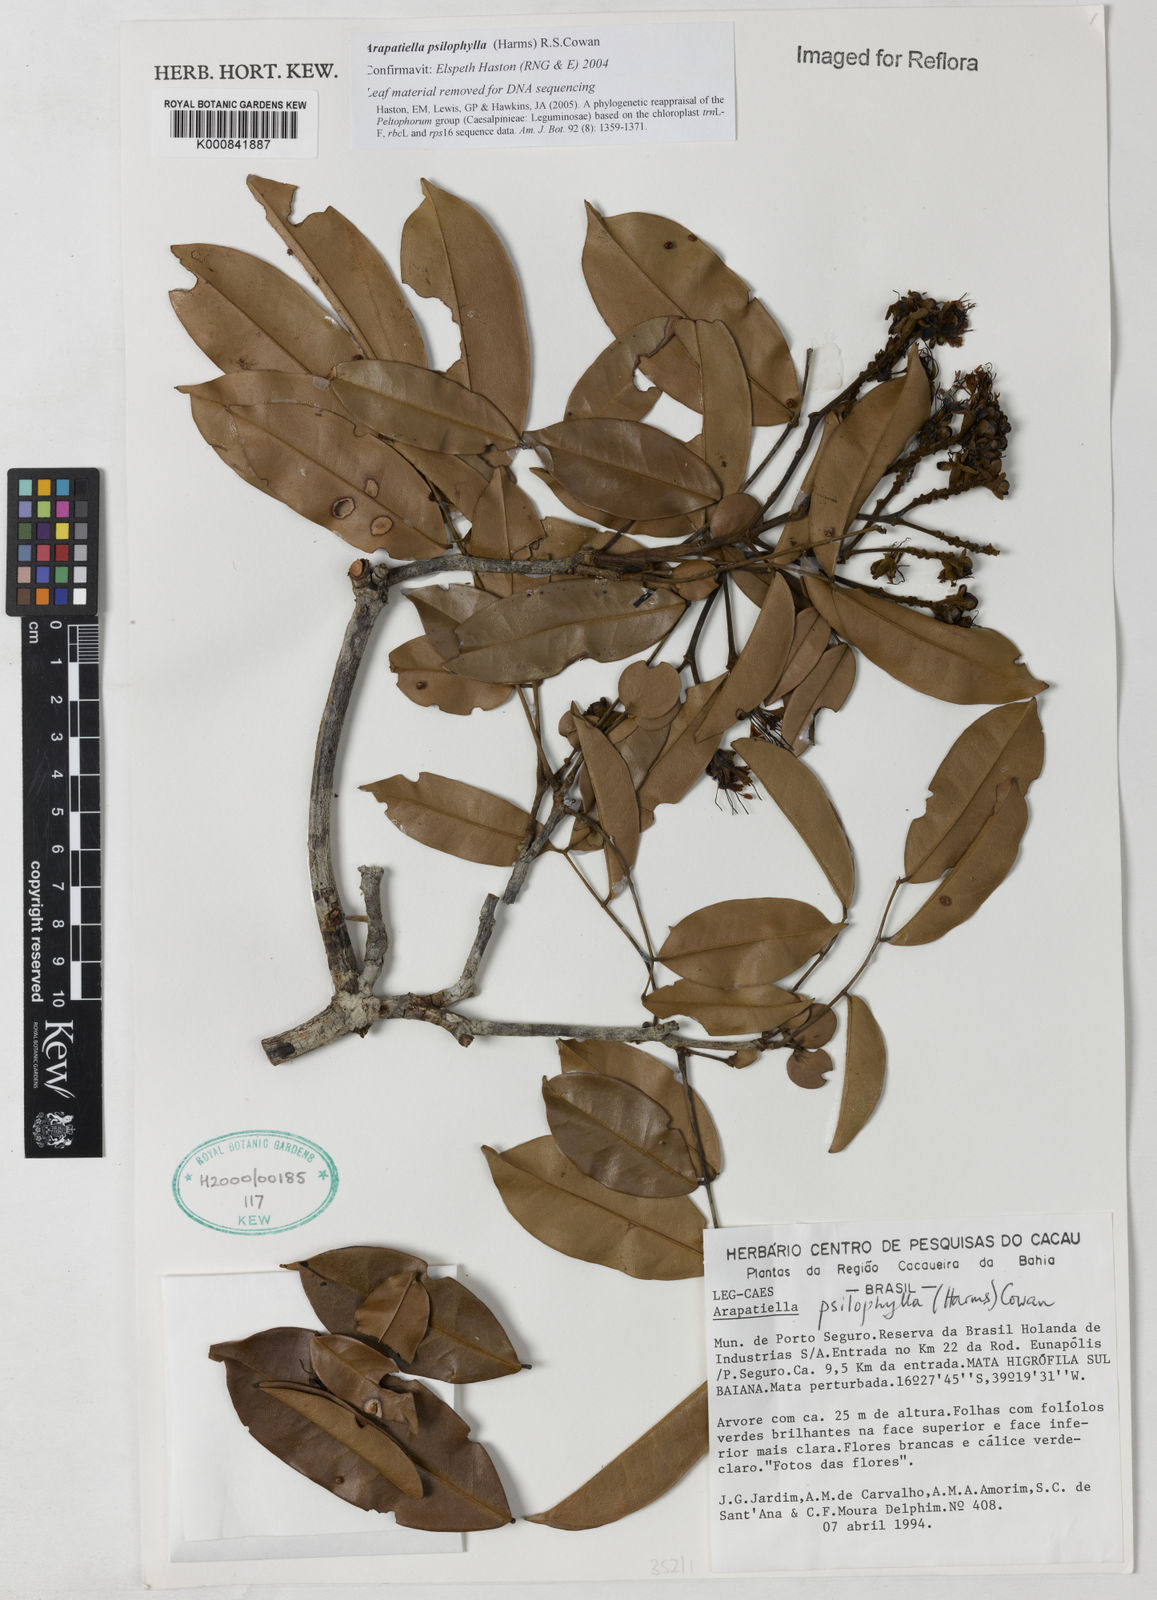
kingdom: Plantae
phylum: Tracheophyta
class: Magnoliopsida
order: Fabales
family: Fabaceae
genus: Arapatiella
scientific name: Arapatiella psilophylla
